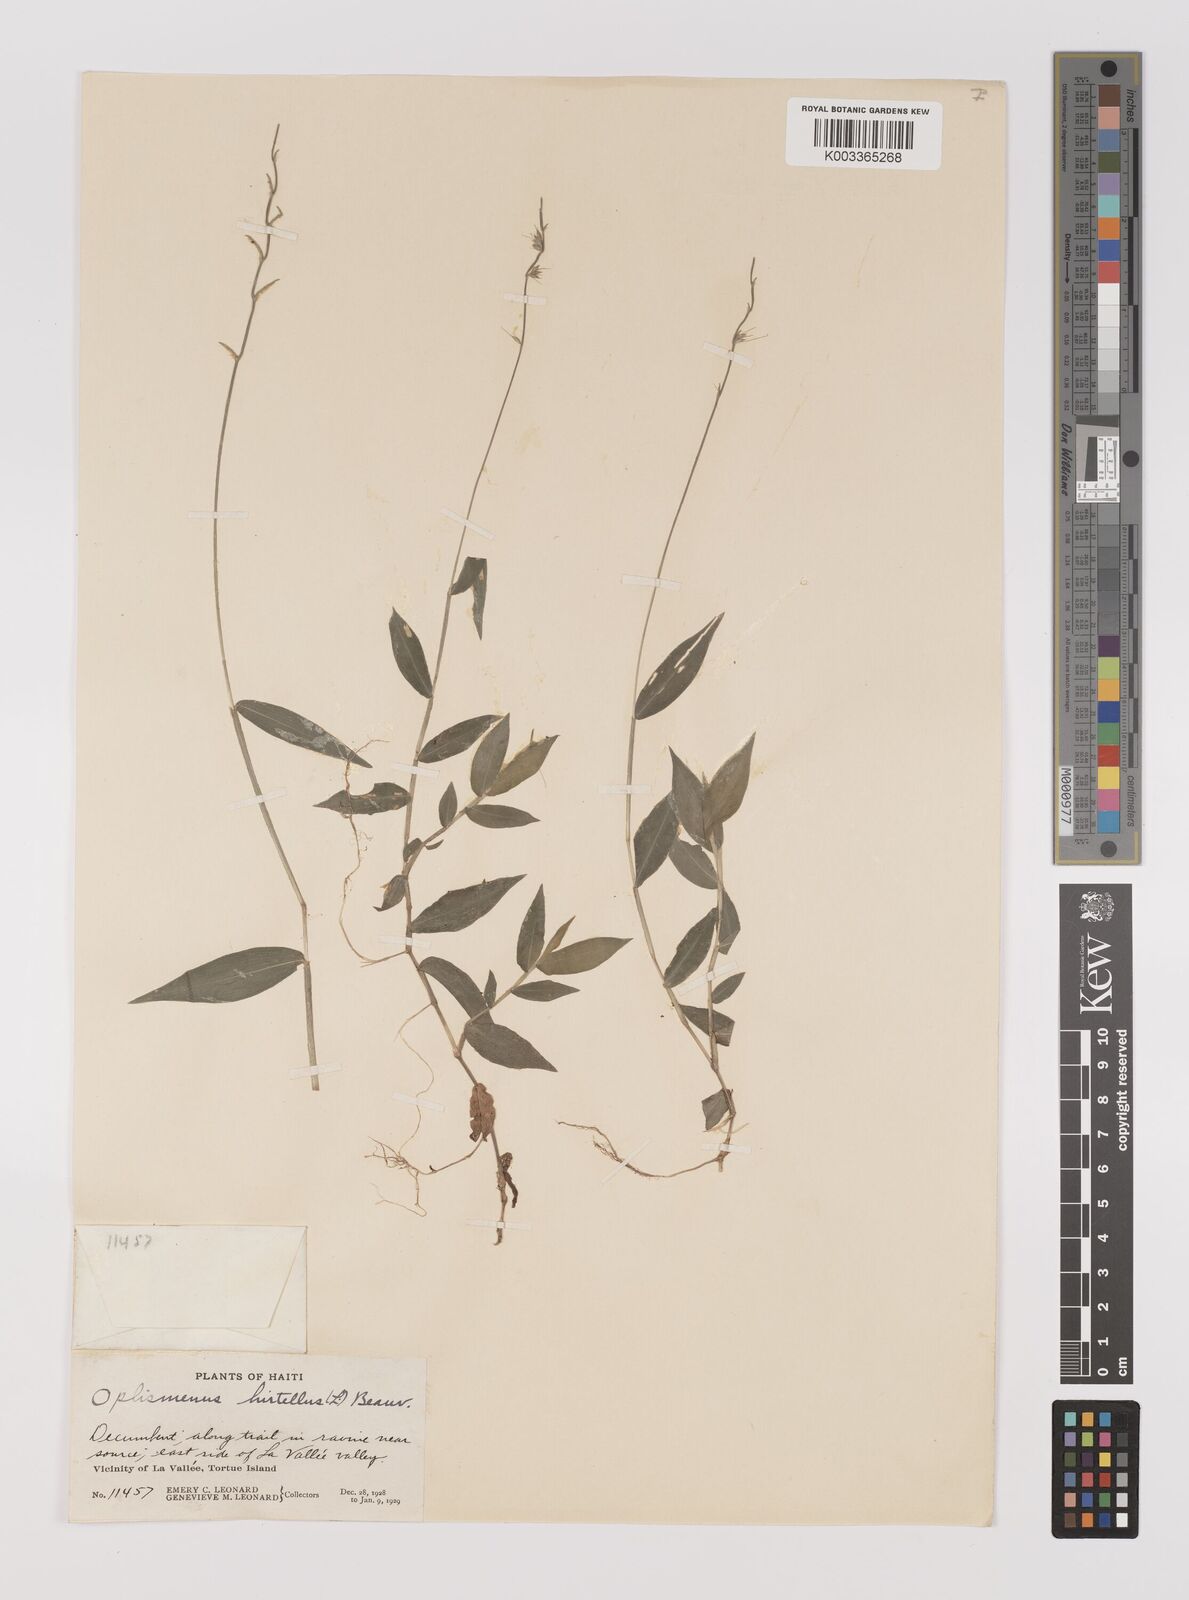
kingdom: Plantae
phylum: Tracheophyta
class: Liliopsida
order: Poales
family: Poaceae
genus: Oplismenus
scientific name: Oplismenus undulatifolius
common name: Wavyleaf basketgrass
